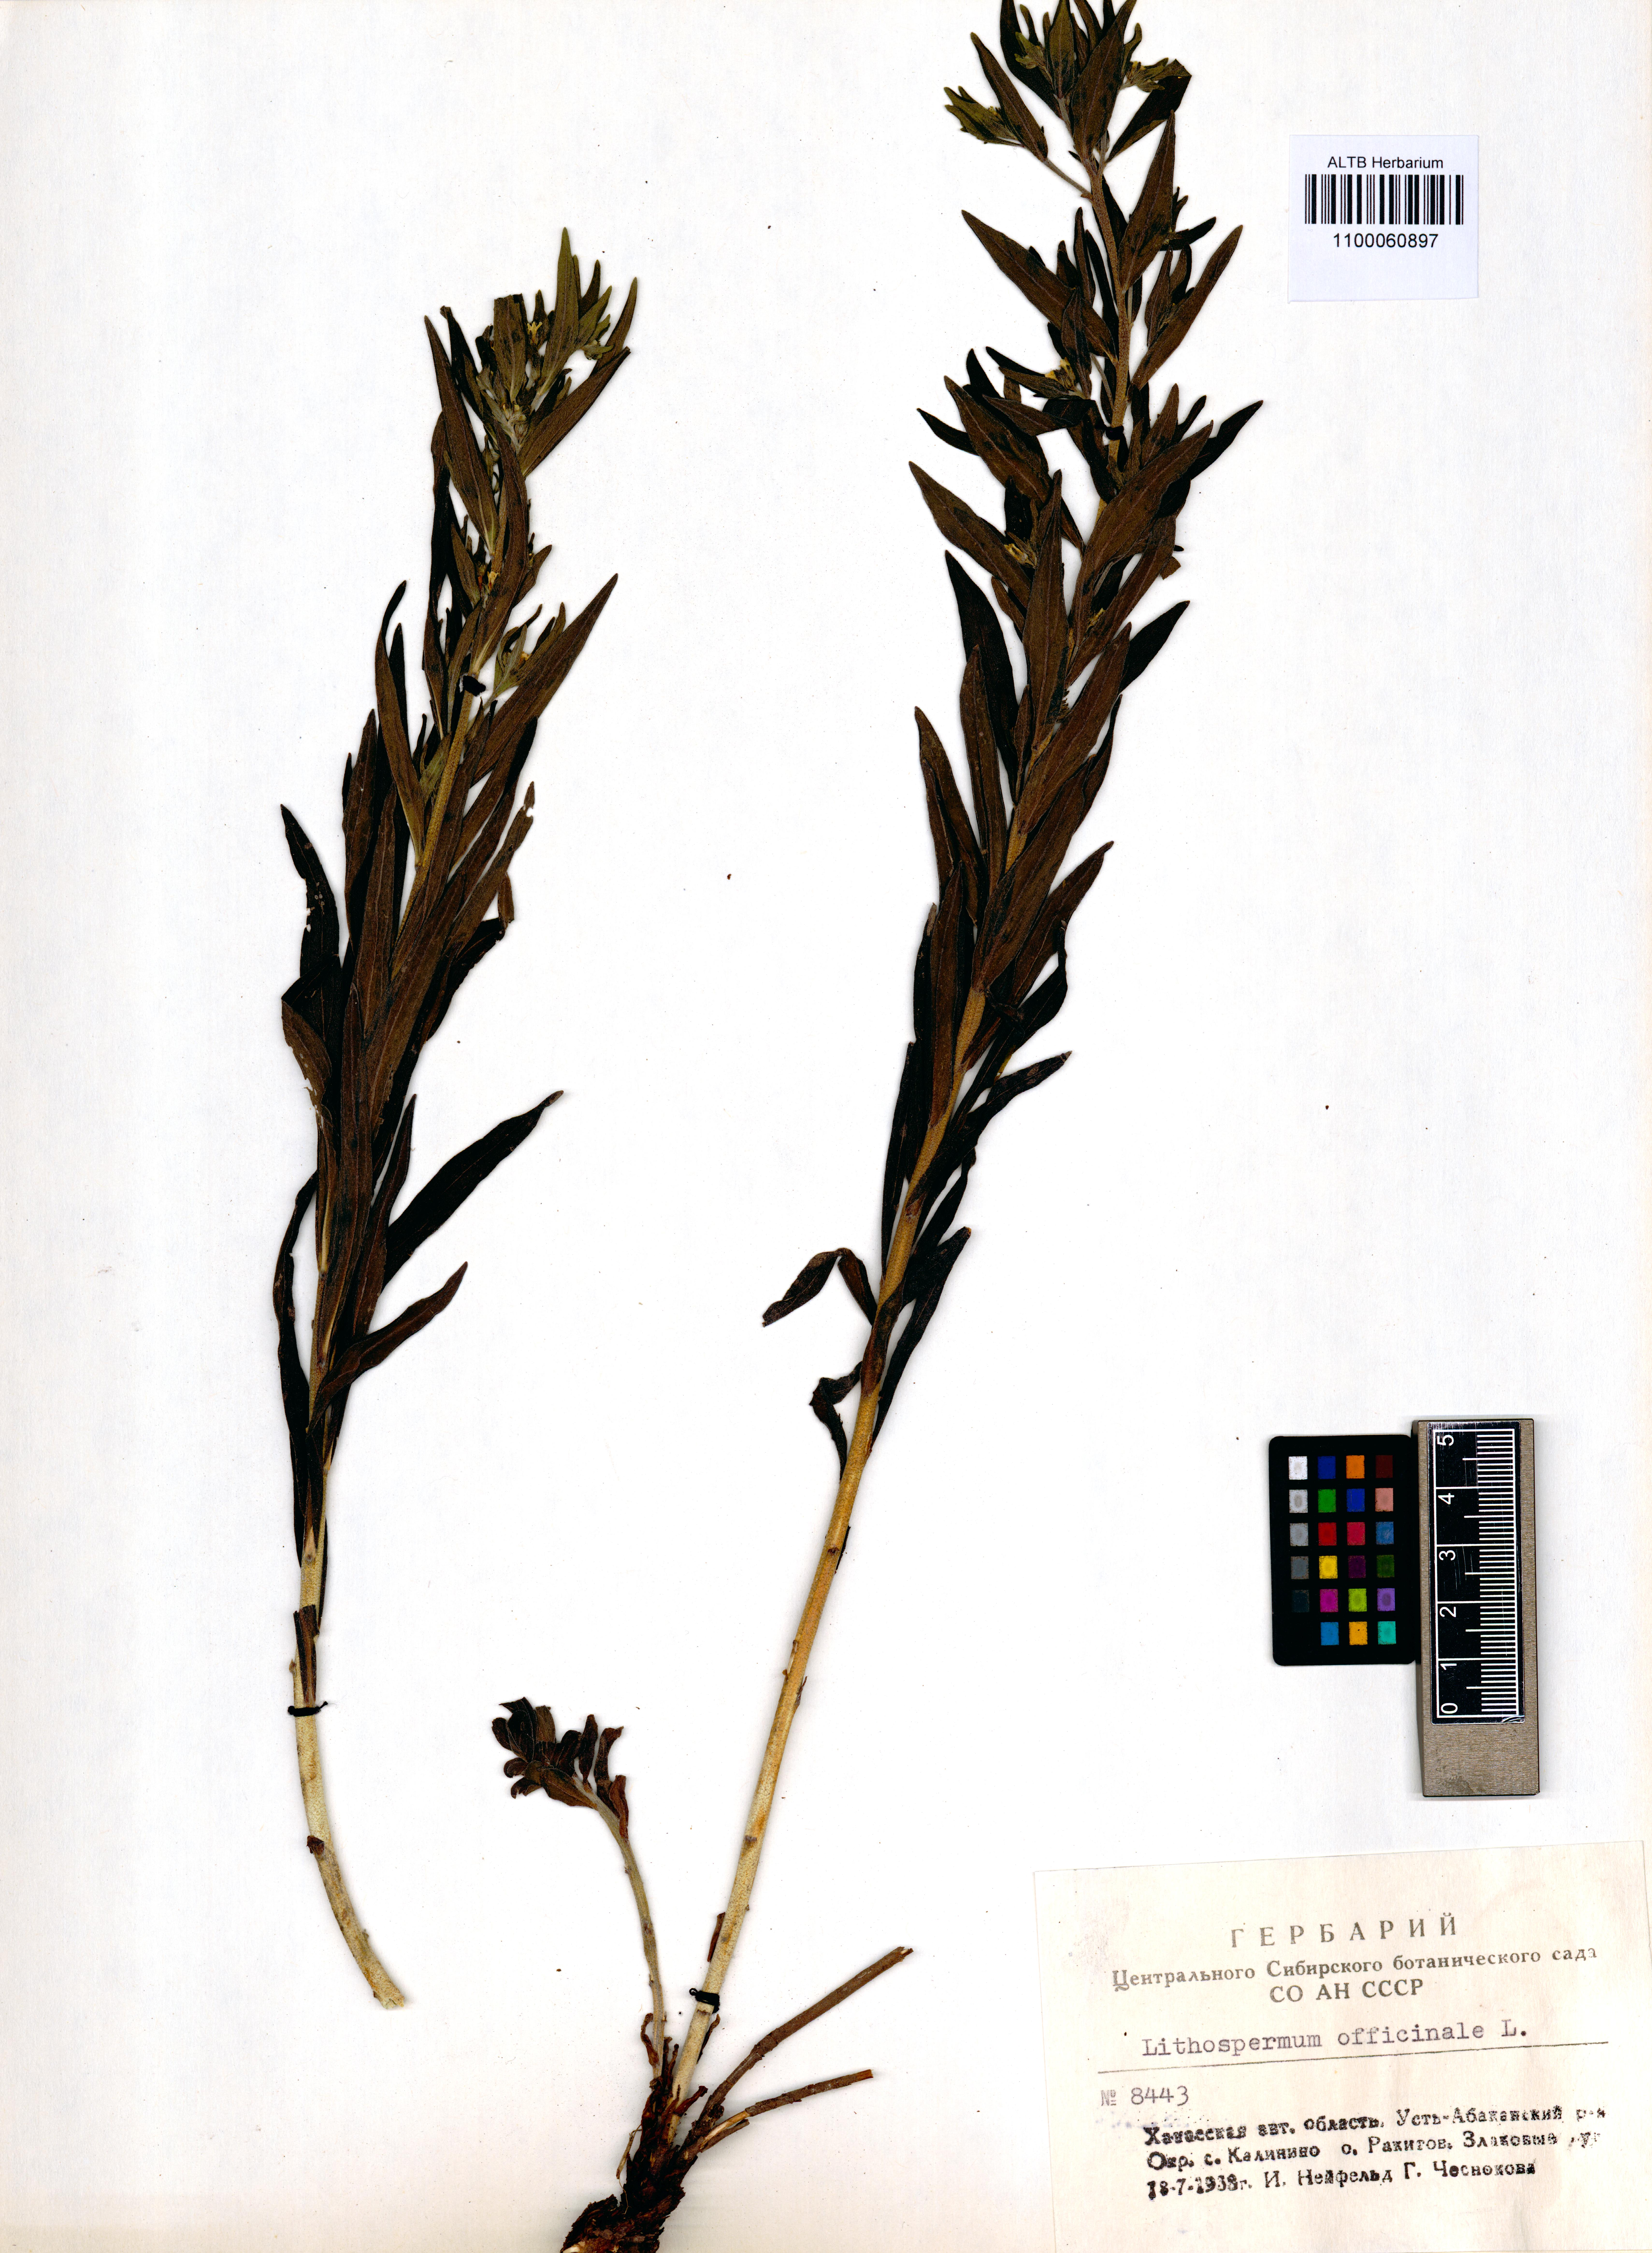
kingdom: Plantae
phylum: Tracheophyta
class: Magnoliopsida
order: Boraginales
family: Boraginaceae
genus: Lithospermum
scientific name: Lithospermum officinale
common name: Common gromwell
